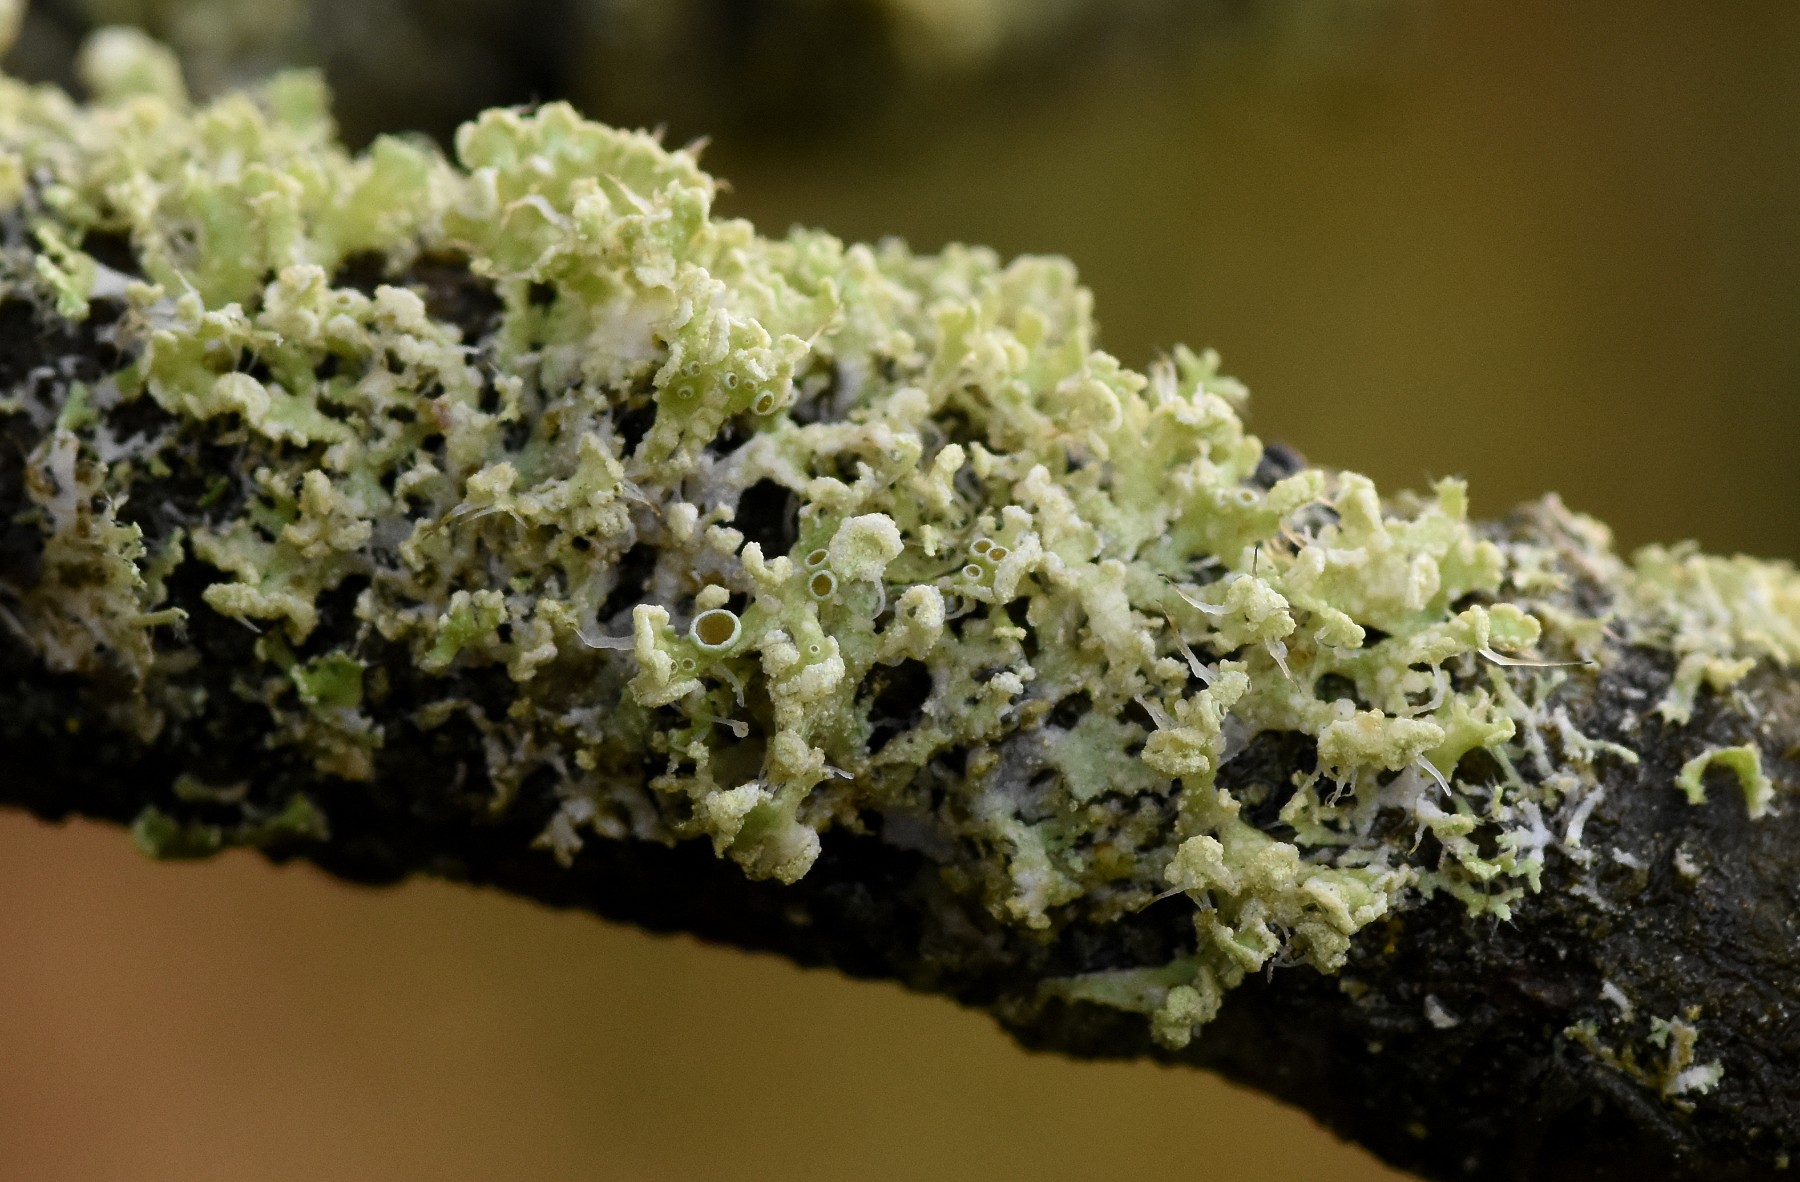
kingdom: Fungi
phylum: Ascomycota
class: Lecanoromycetes
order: Caliciales
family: Physciaceae
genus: Physcia
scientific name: Physcia tenella
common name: spæd rosetlav
